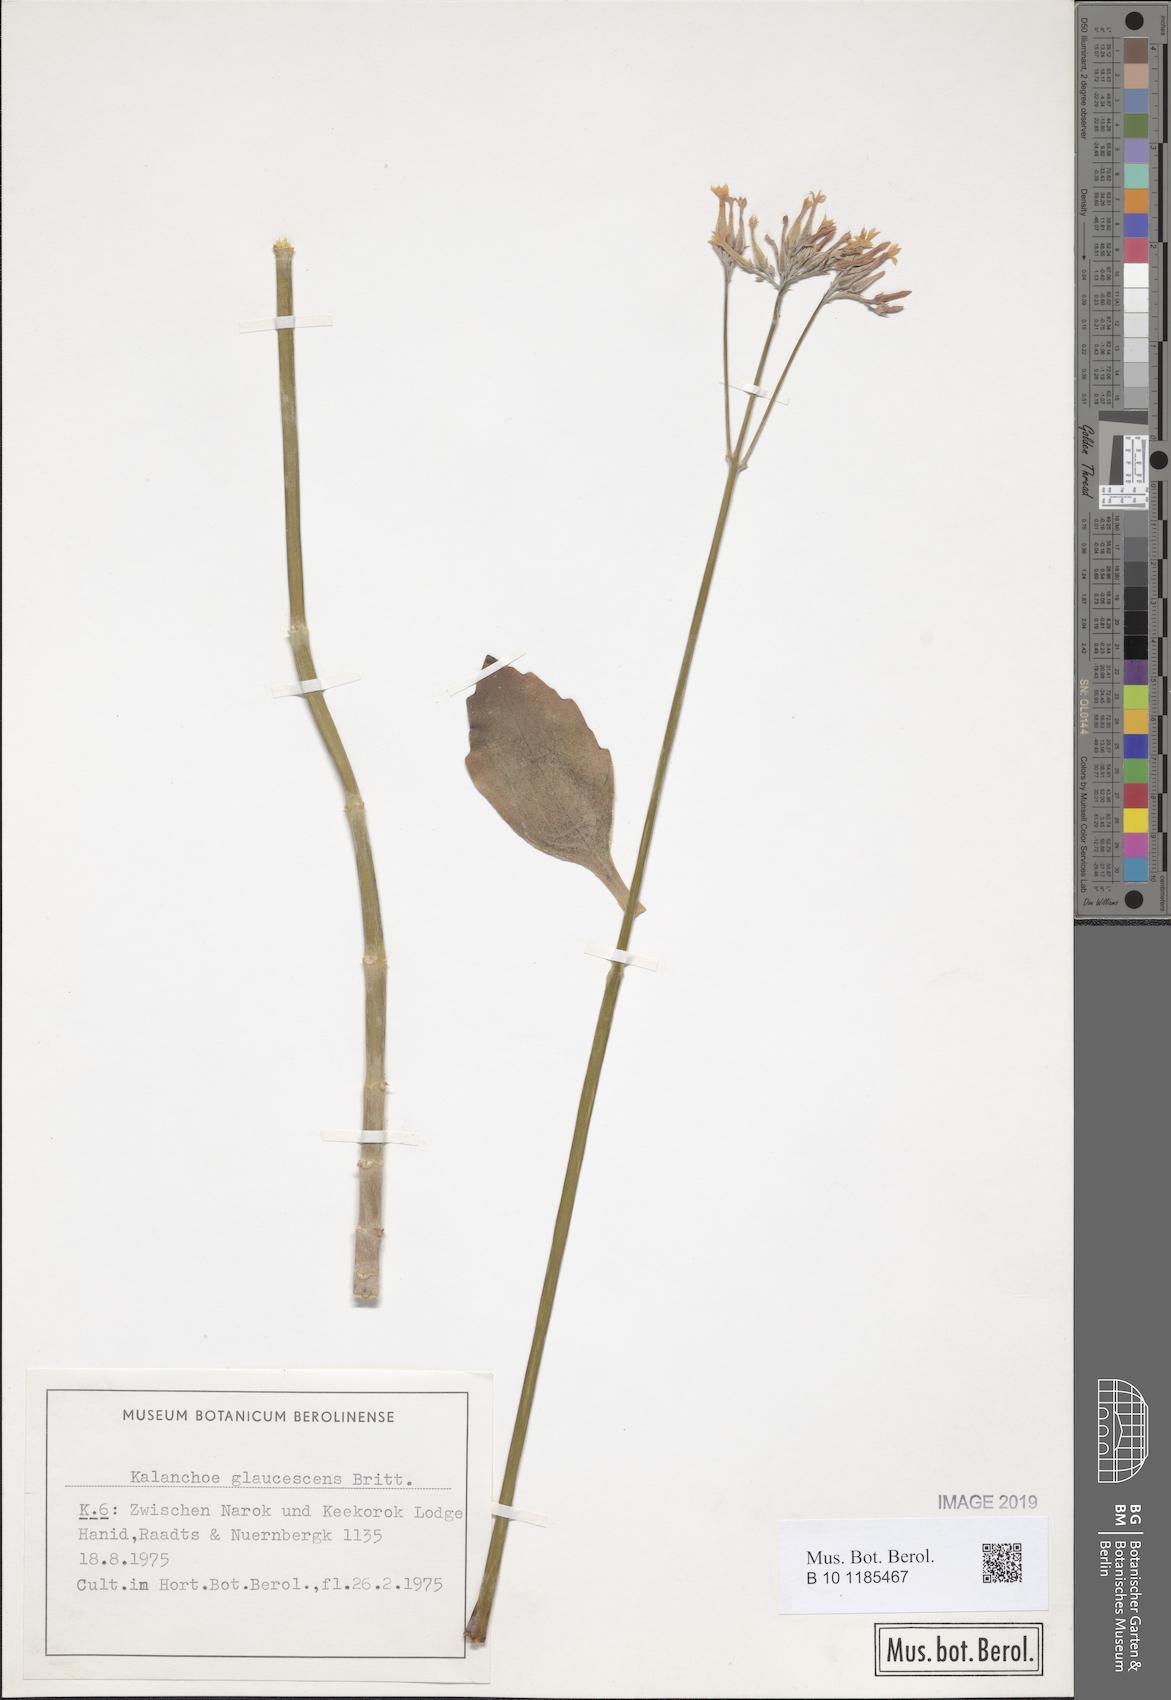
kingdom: Plantae
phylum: Tracheophyta
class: Magnoliopsida
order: Saxifragales
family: Crassulaceae
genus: Kalanchoe
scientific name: Kalanchoe glaucescens
